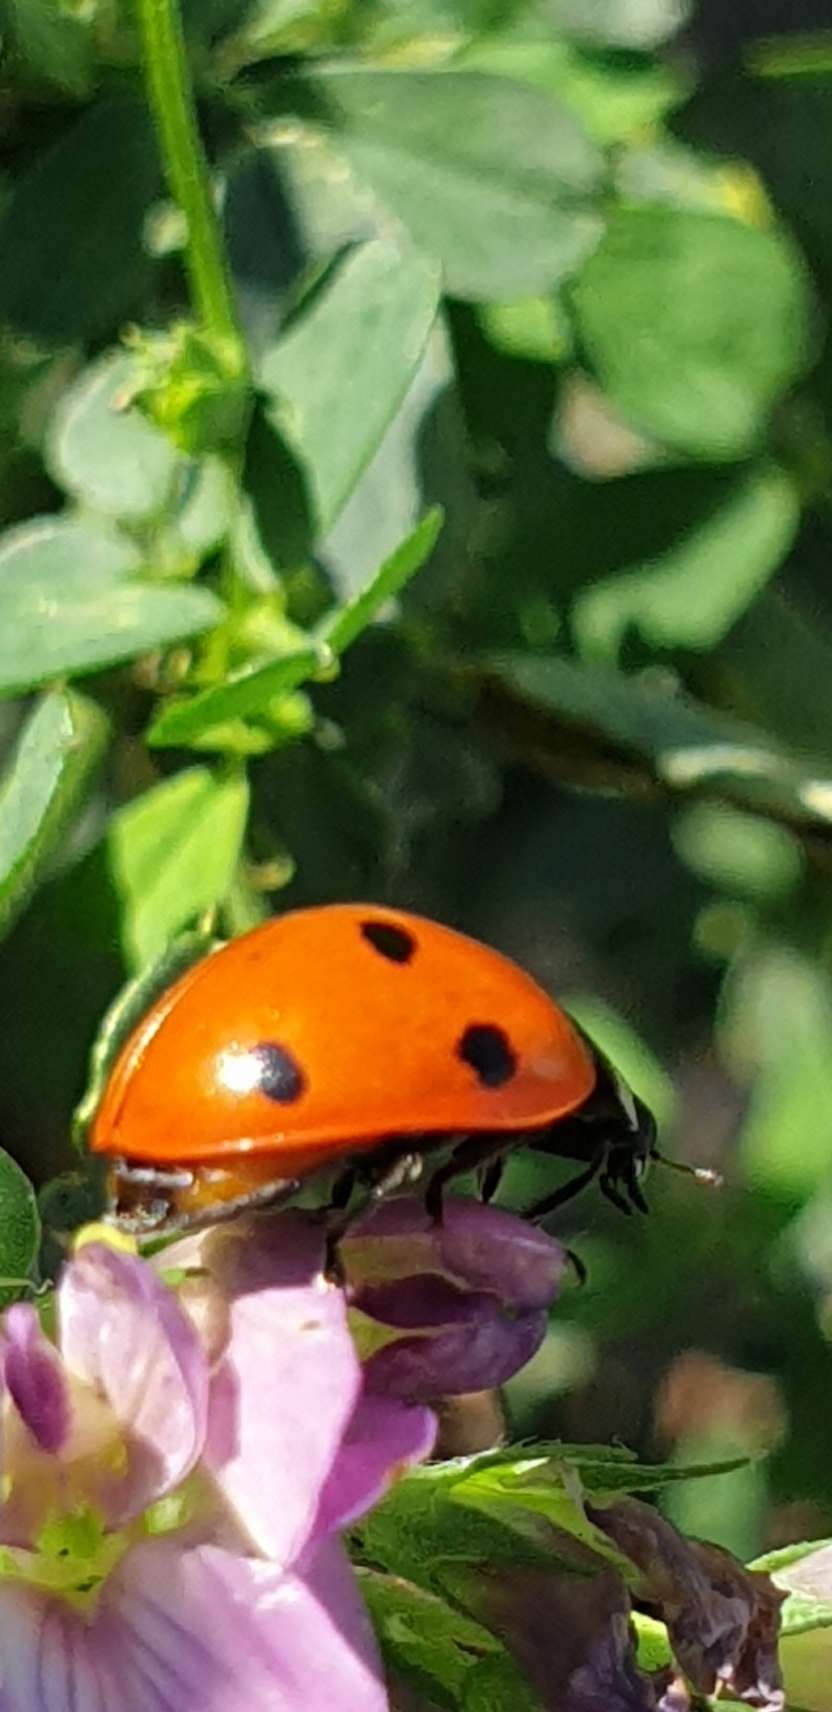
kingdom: Animalia
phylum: Arthropoda
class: Insecta
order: Coleoptera
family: Coccinellidae
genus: Coccinella
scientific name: Coccinella septempunctata
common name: Syvplettet mariehøne
